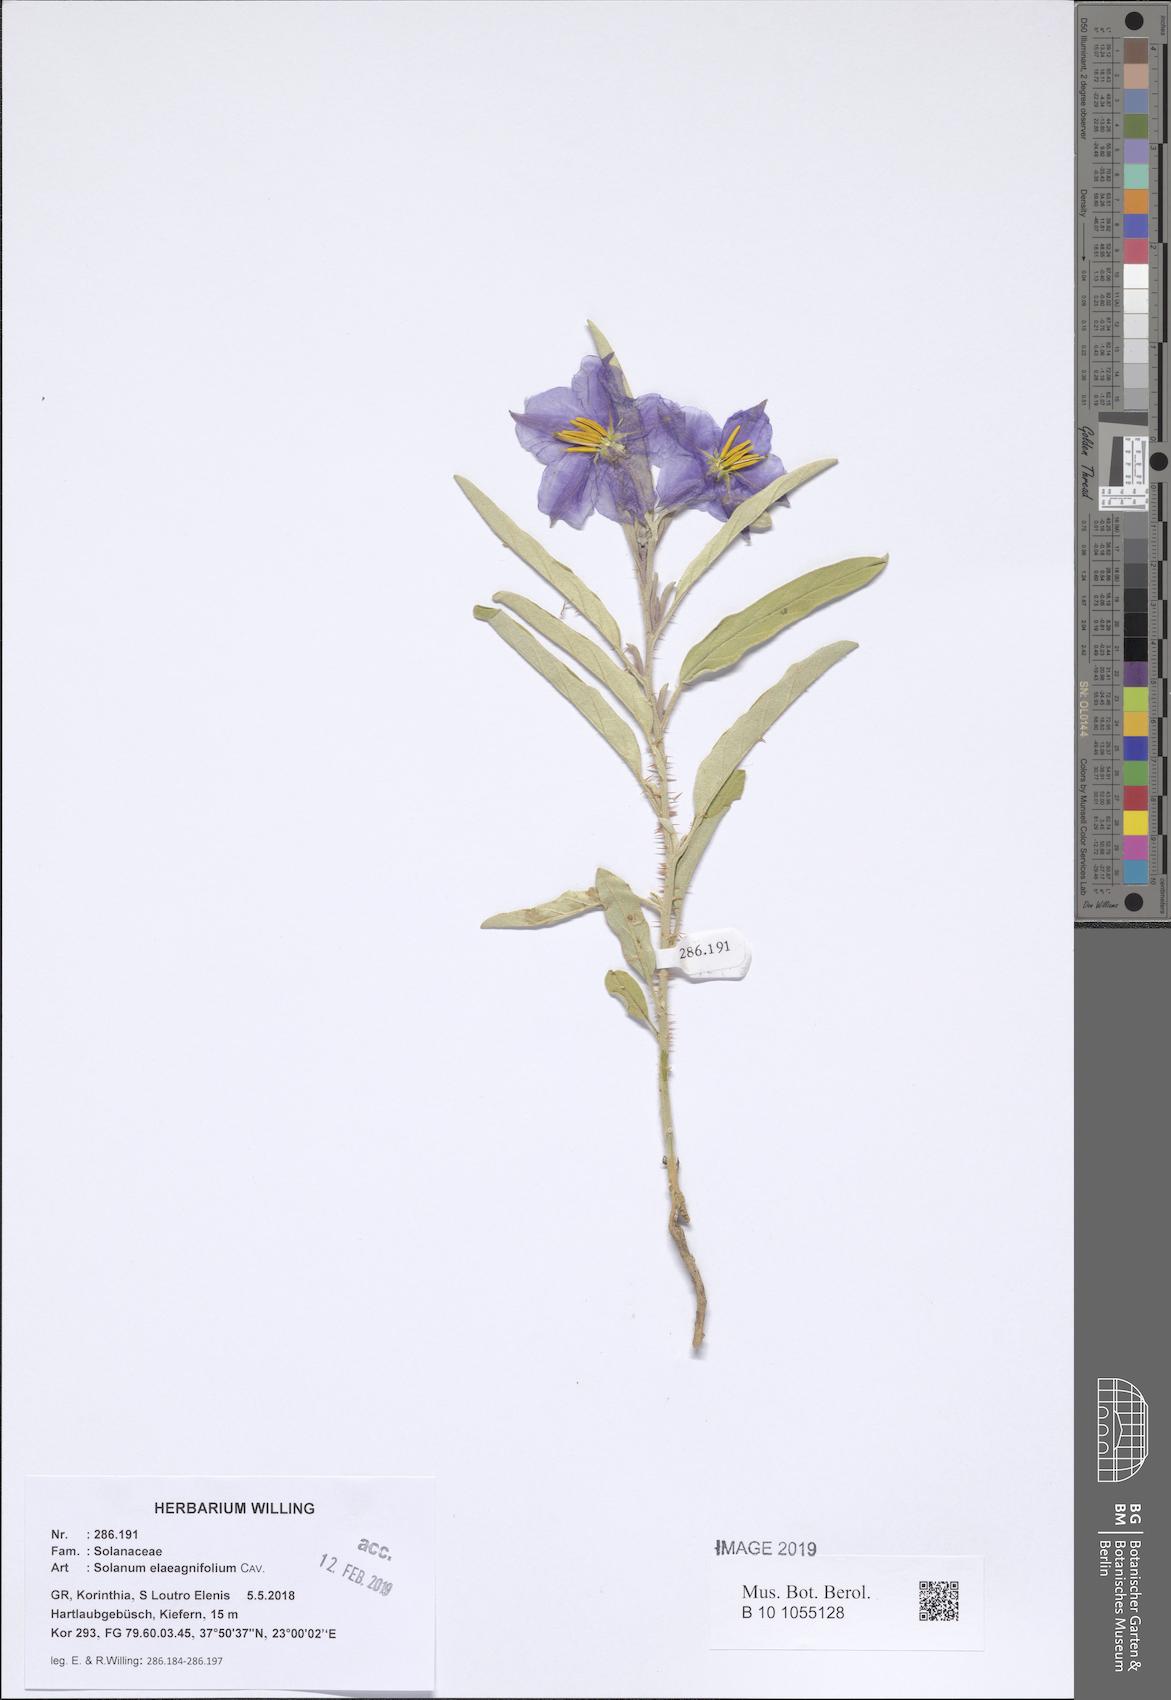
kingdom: Plantae
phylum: Tracheophyta
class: Magnoliopsida
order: Solanales
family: Solanaceae
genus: Solanum
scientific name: Solanum elaeagnifolium
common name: Silverleaf nightshade
